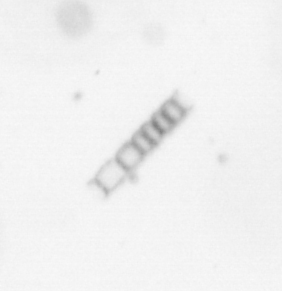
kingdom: Chromista
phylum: Ochrophyta
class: Bacillariophyceae
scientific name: Bacillariophyceae
